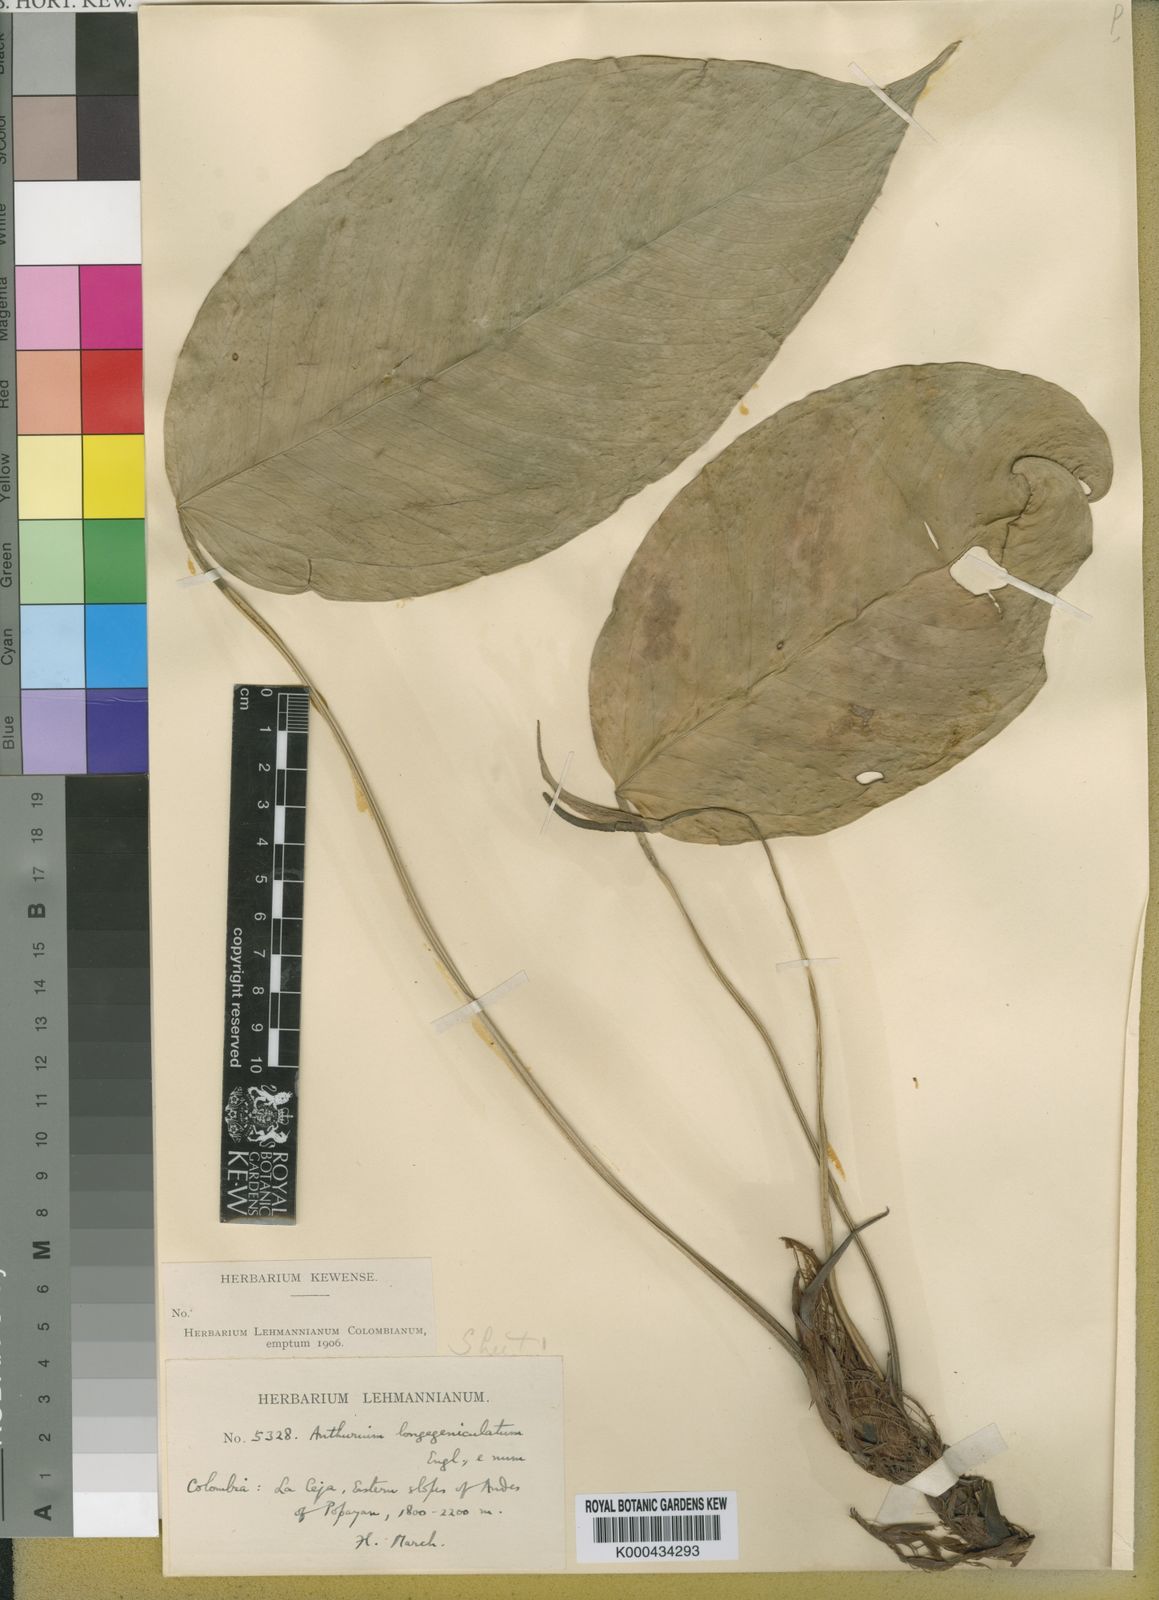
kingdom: Plantae
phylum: Tracheophyta
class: Liliopsida
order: Alismatales
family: Araceae
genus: Anthurium
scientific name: Anthurium
